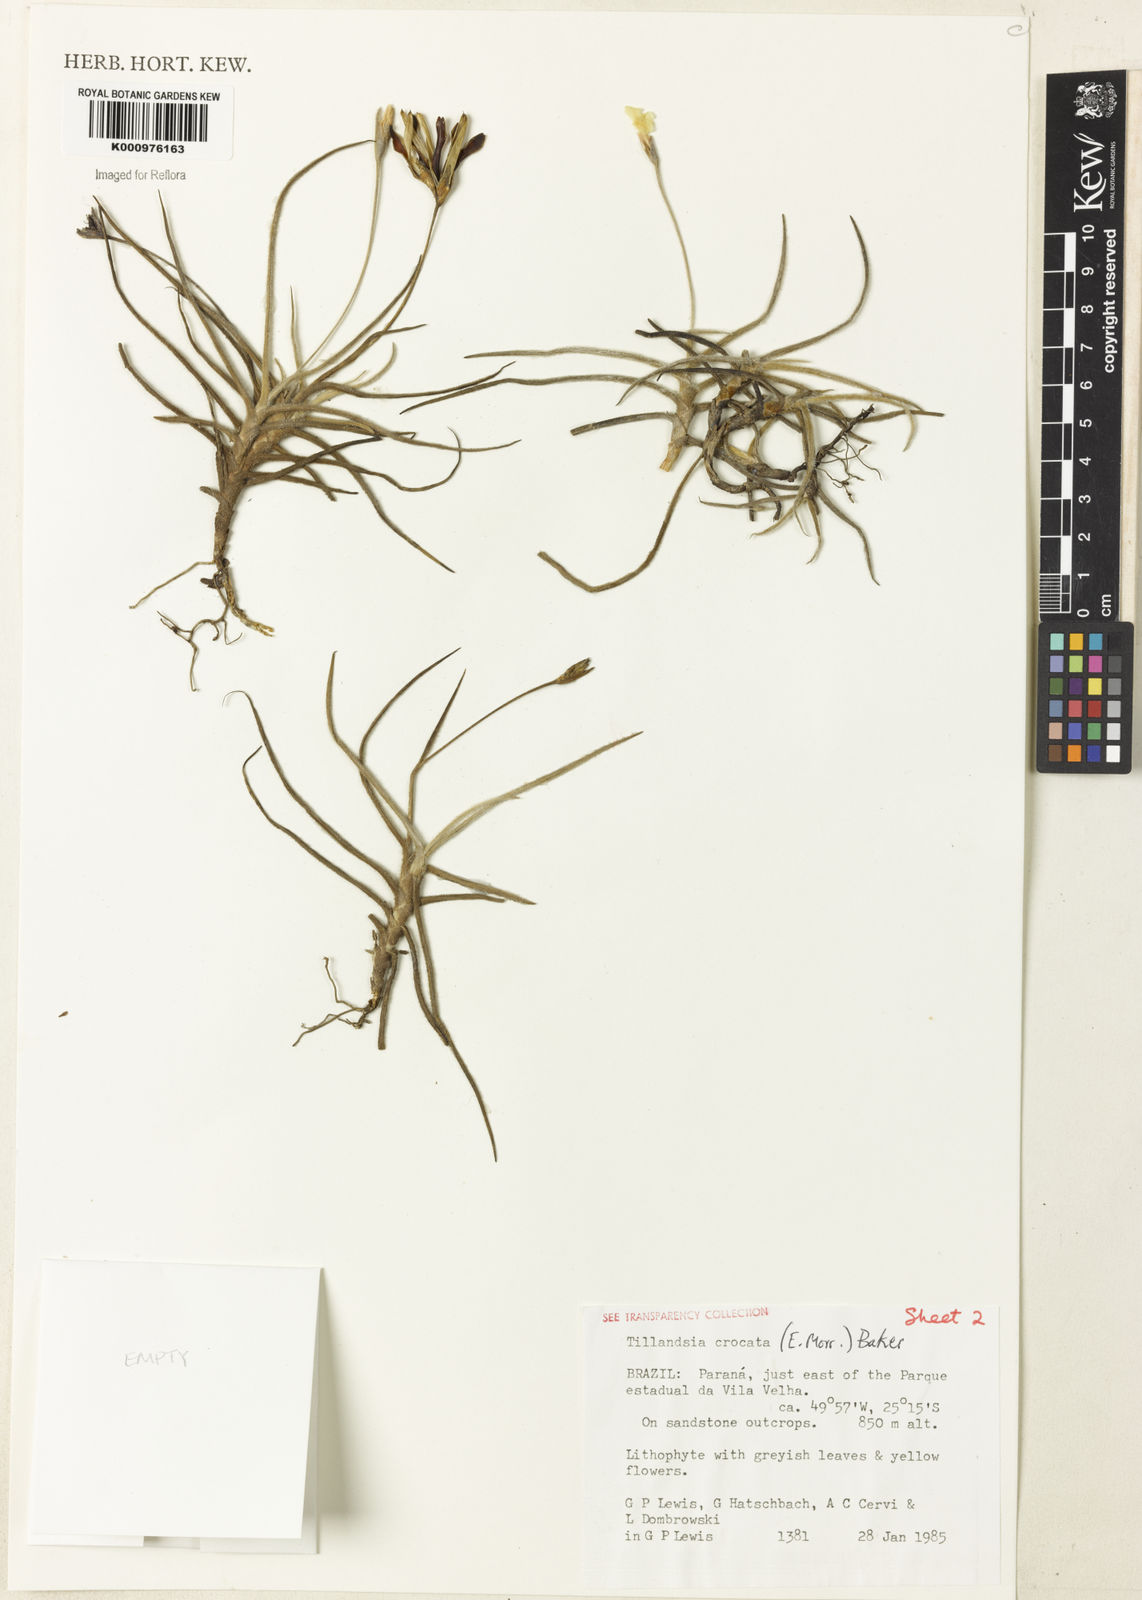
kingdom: Plantae
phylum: Tracheophyta
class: Liliopsida
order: Poales
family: Bromeliaceae
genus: Tillandsia
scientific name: Tillandsia
